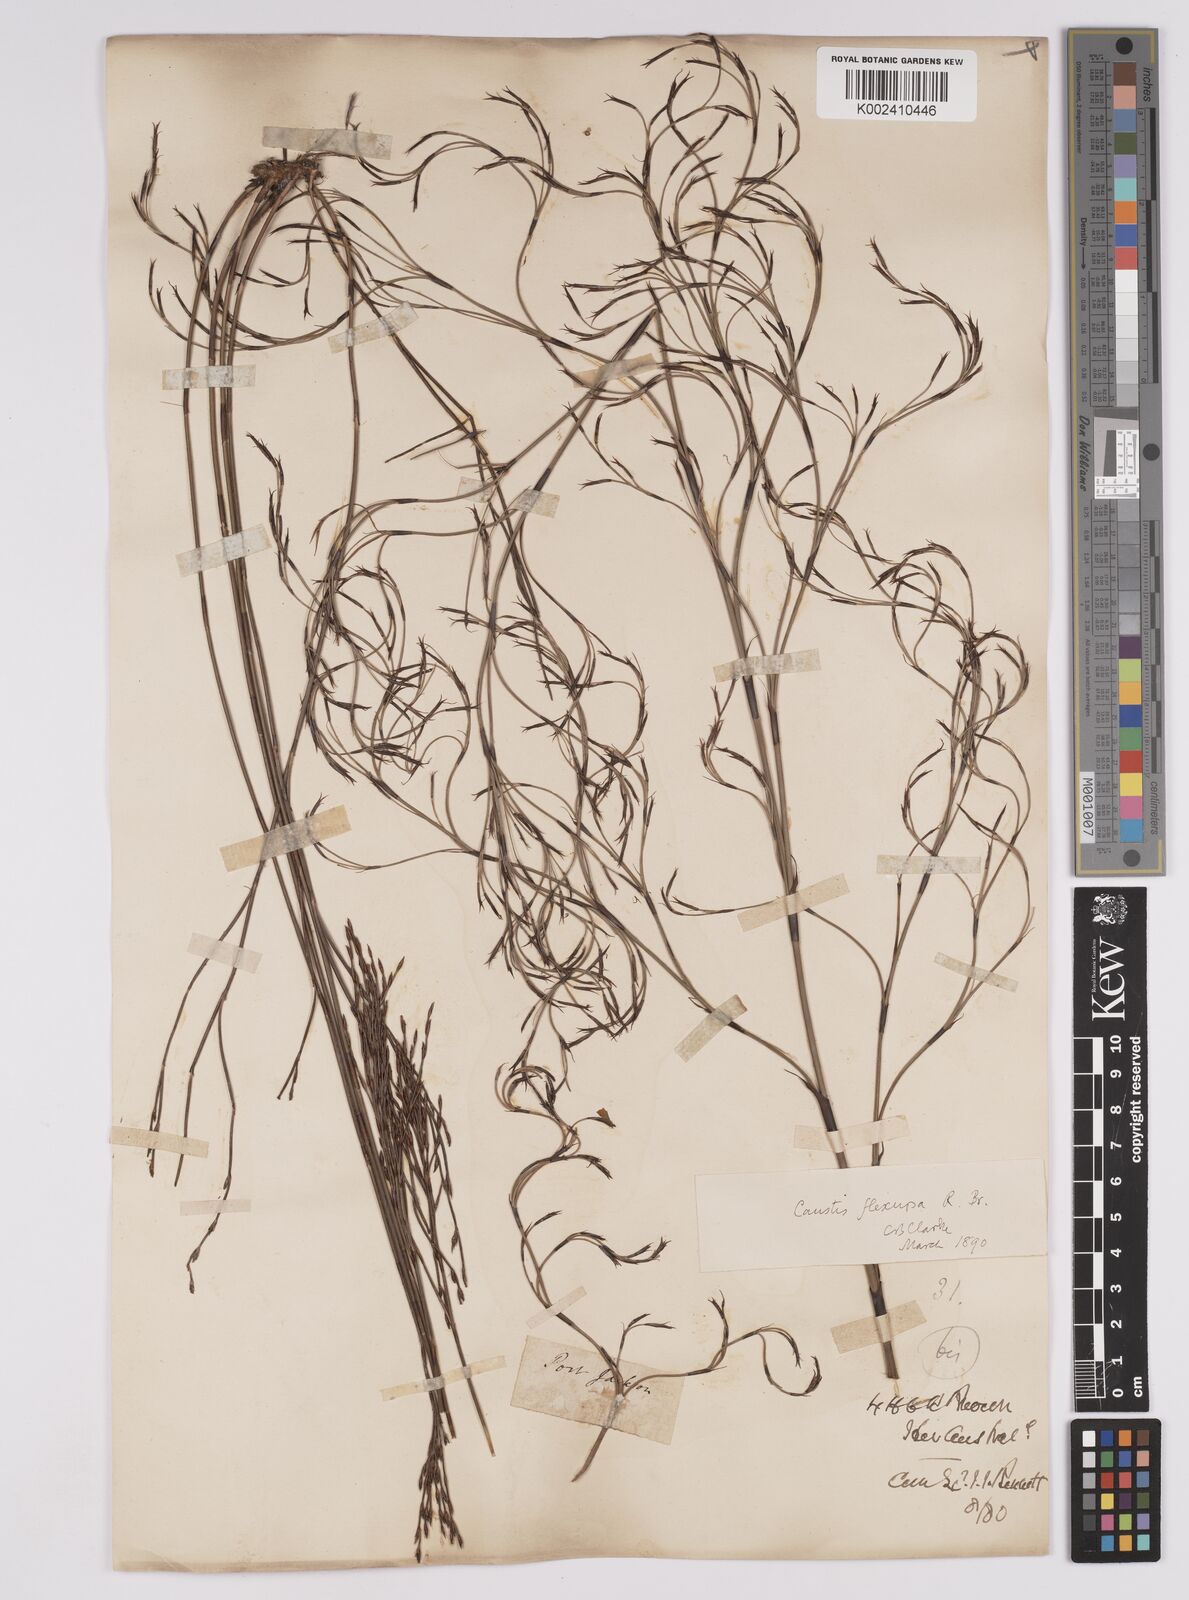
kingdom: Plantae
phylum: Tracheophyta
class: Liliopsida
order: Poales
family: Cyperaceae
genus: Caustis
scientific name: Caustis flexuosa
